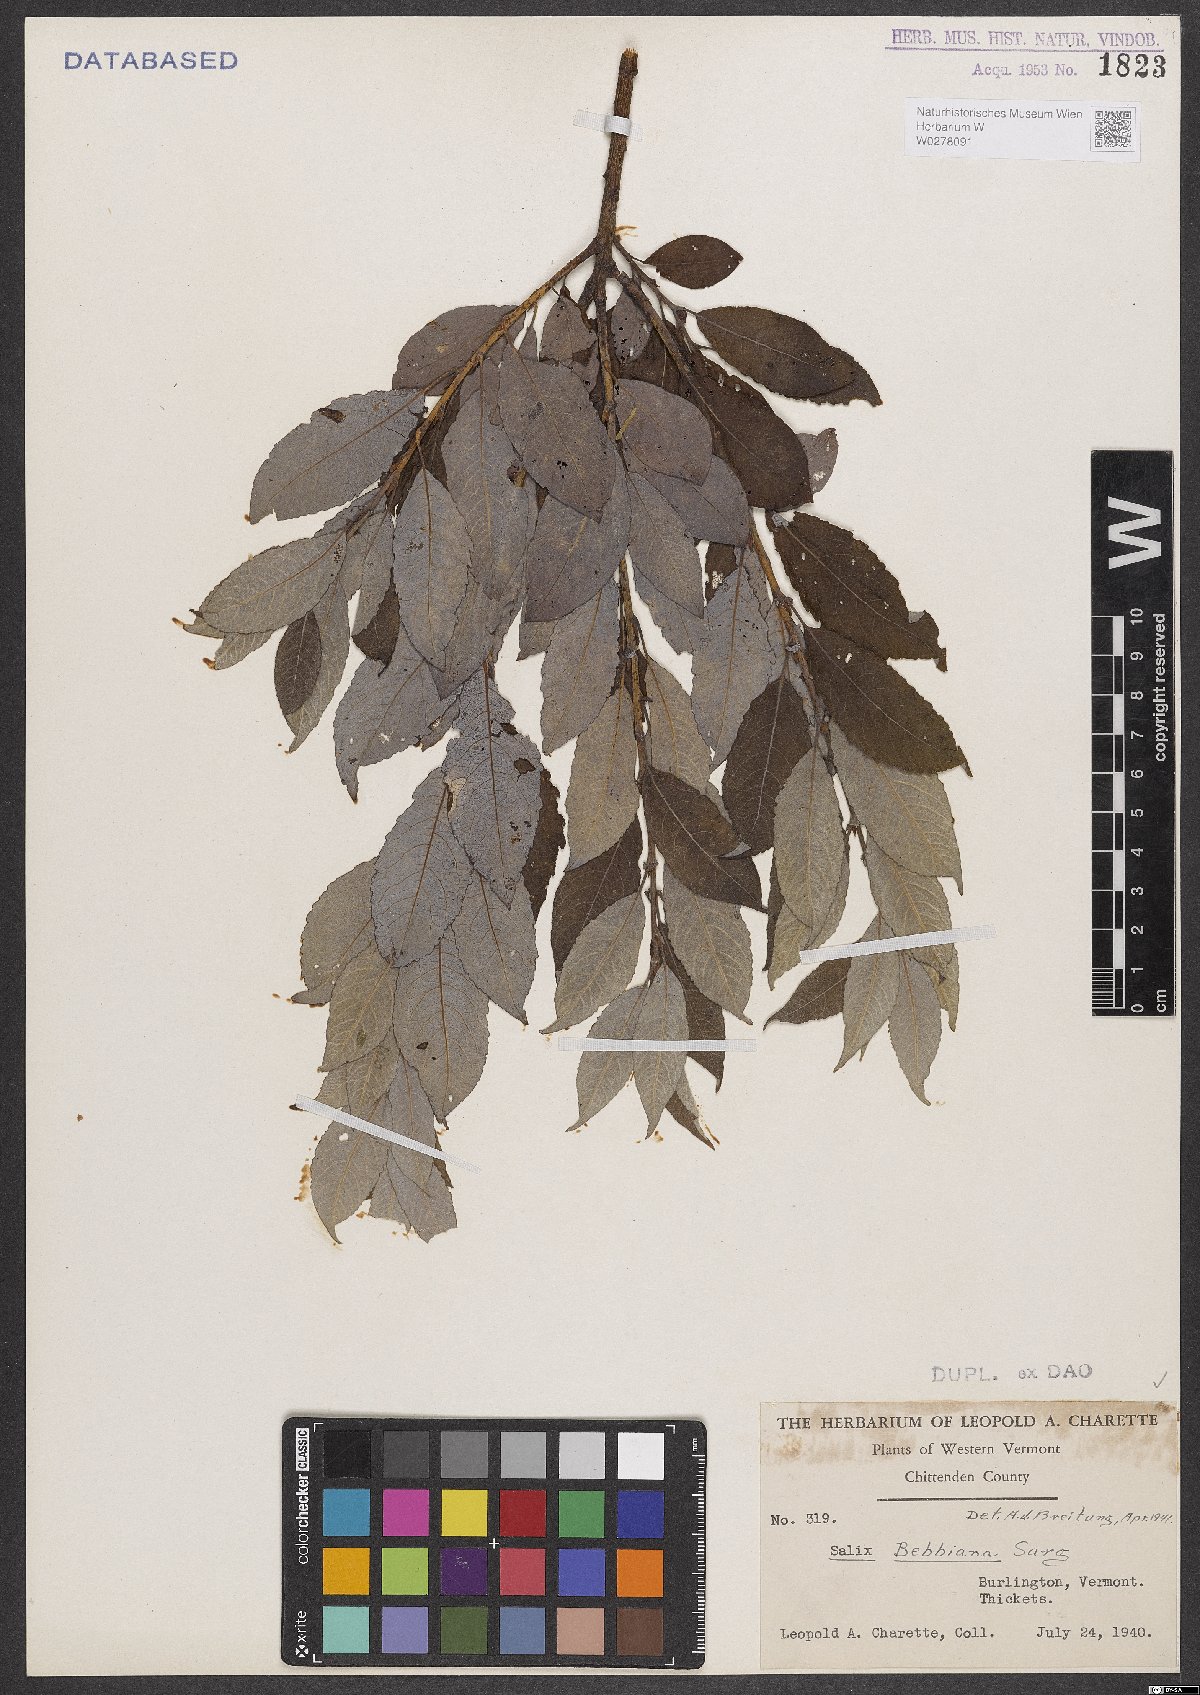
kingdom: Plantae
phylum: Tracheophyta
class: Magnoliopsida
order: Malpighiales
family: Salicaceae
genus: Salix
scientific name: Salix bebbiana
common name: Bebb's willow
